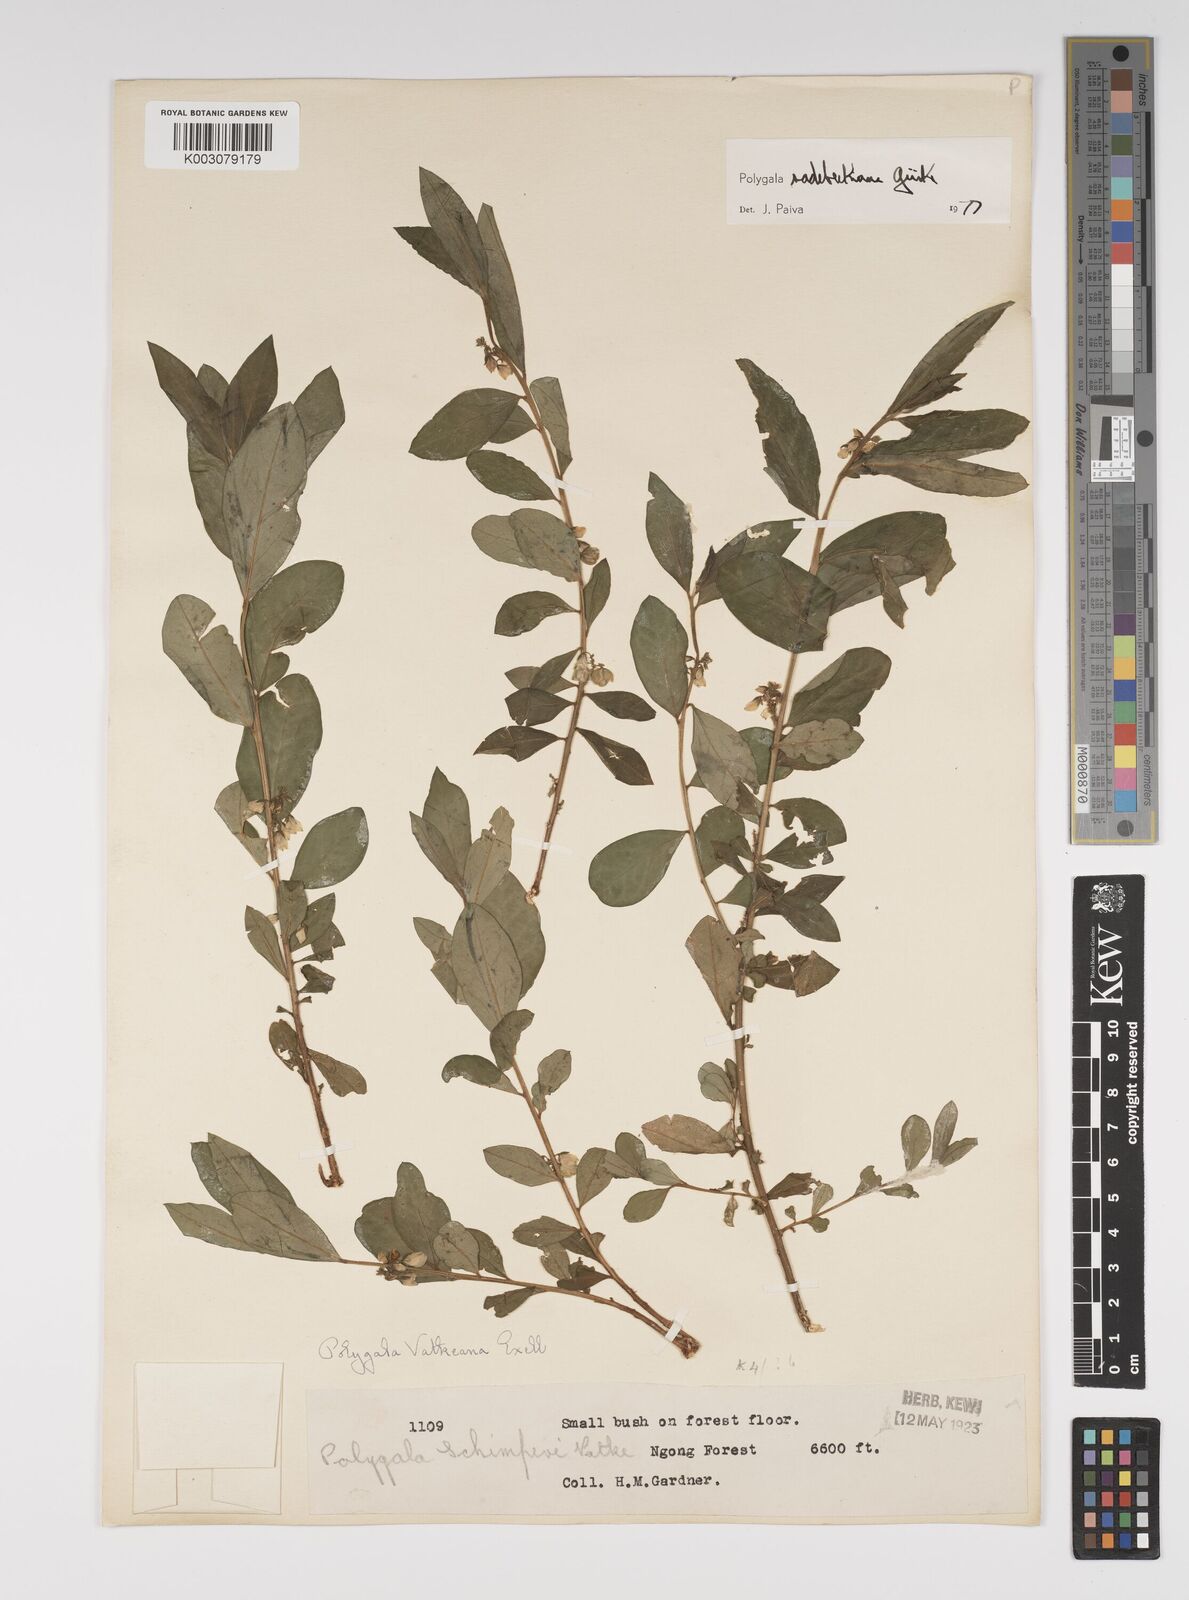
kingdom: Plantae
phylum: Tracheophyta
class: Magnoliopsida
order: Fabales
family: Polygalaceae
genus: Polygala
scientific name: Polygala sadebeckiana
